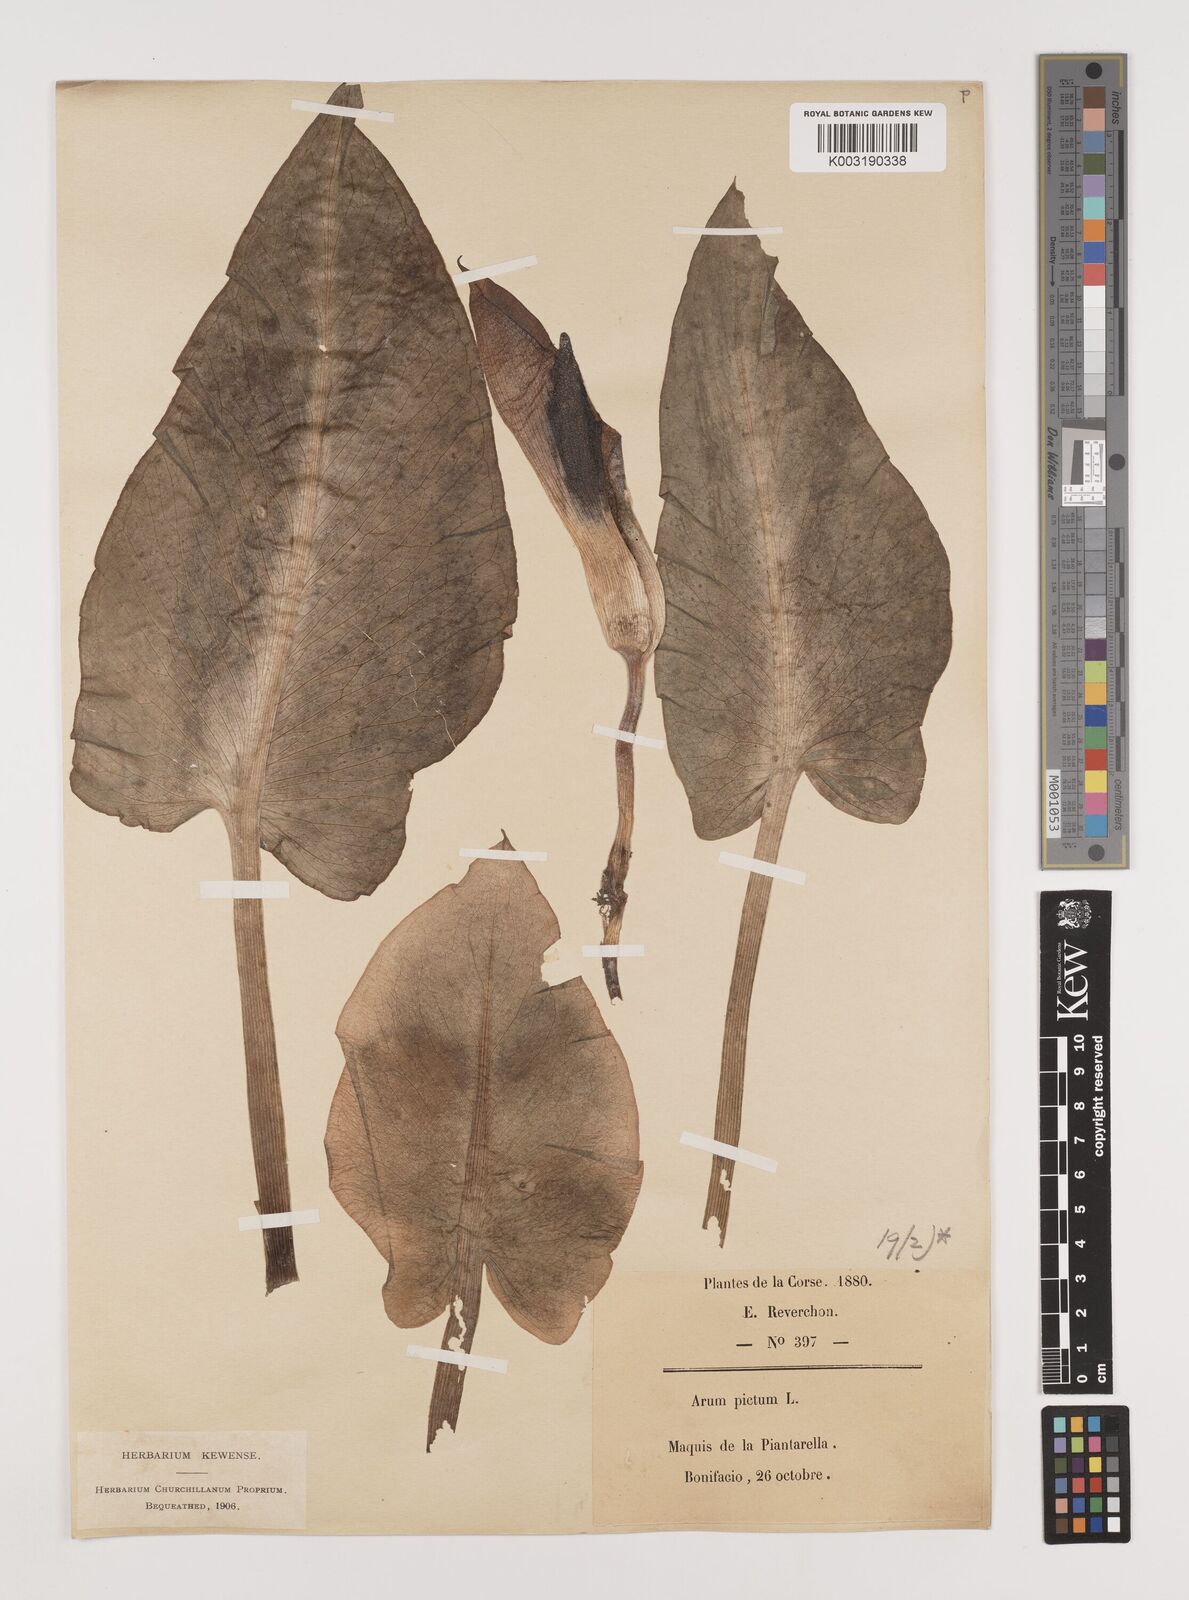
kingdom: Plantae
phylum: Tracheophyta
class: Liliopsida
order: Alismatales
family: Araceae
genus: Arum
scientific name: Arum pictum
